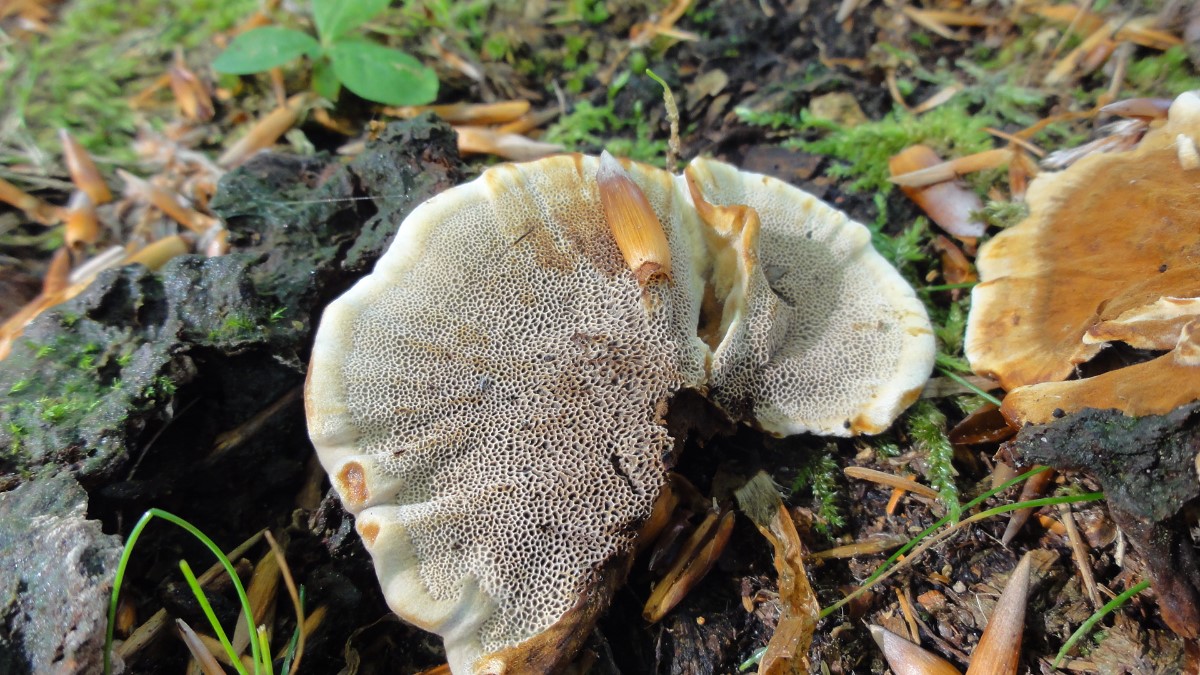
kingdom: Fungi
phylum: Basidiomycota
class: Agaricomycetes
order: Hymenochaetales
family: Hymenochaetaceae
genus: Coltricia
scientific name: Coltricia perennis
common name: almindelig sandporesvamp
